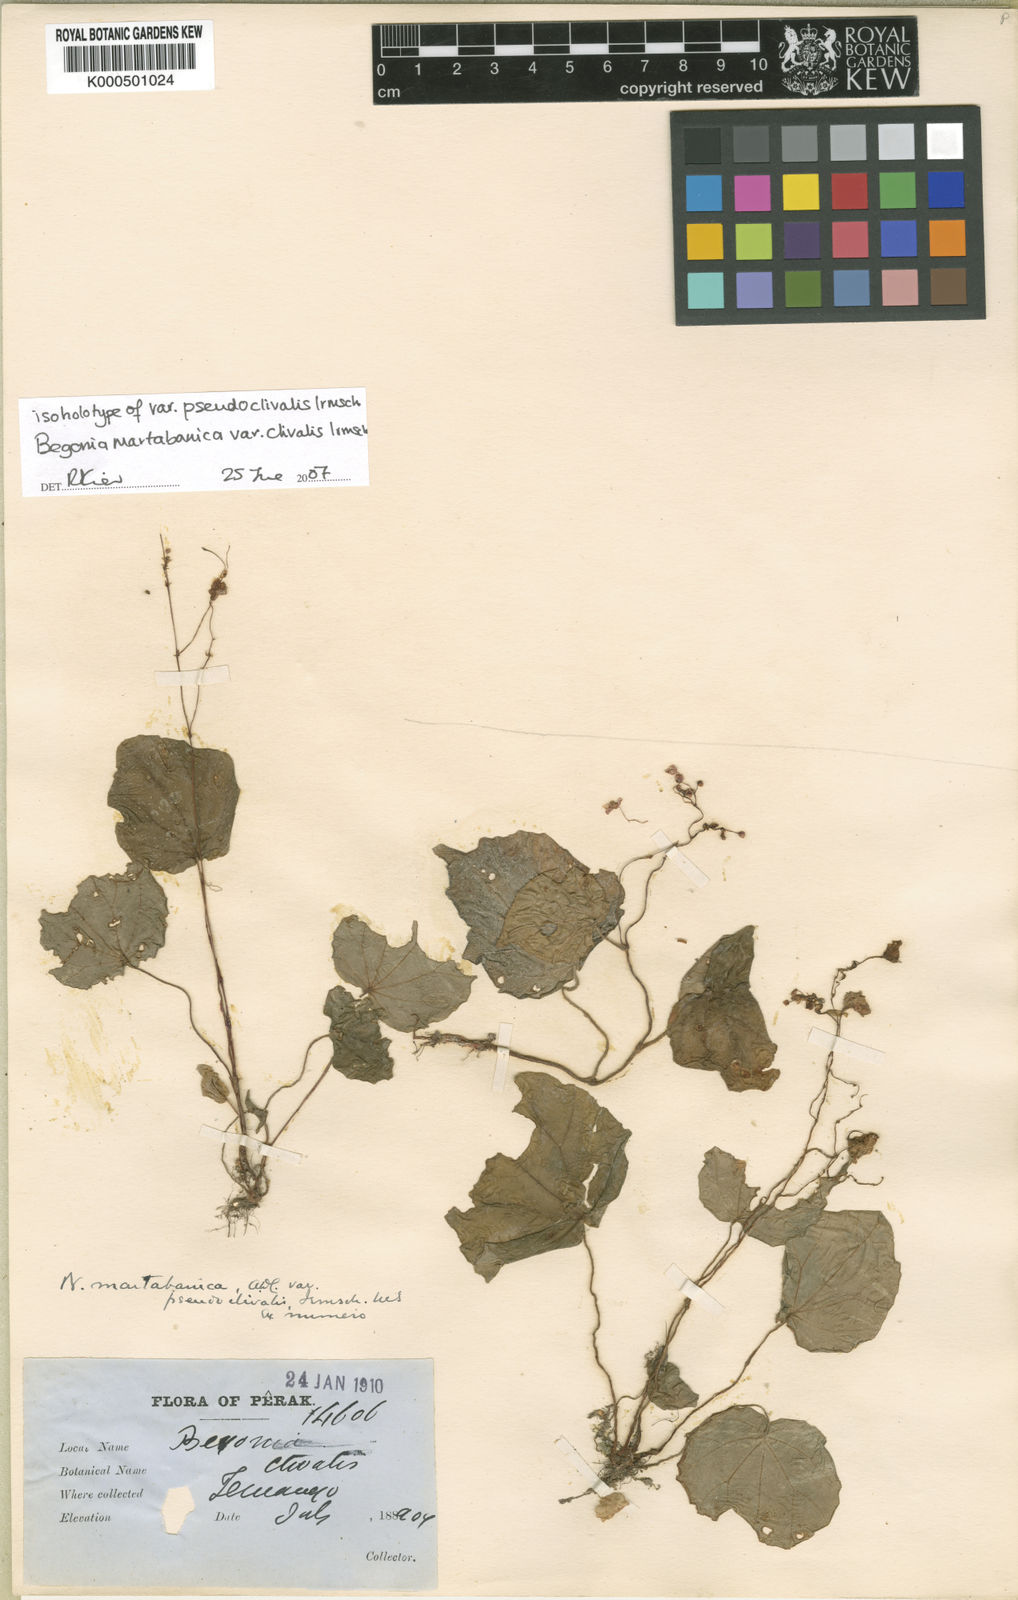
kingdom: Plantae
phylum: Tracheophyta
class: Magnoliopsida
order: Cucurbitales
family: Begoniaceae
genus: Begonia
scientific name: Begonia martabanica
